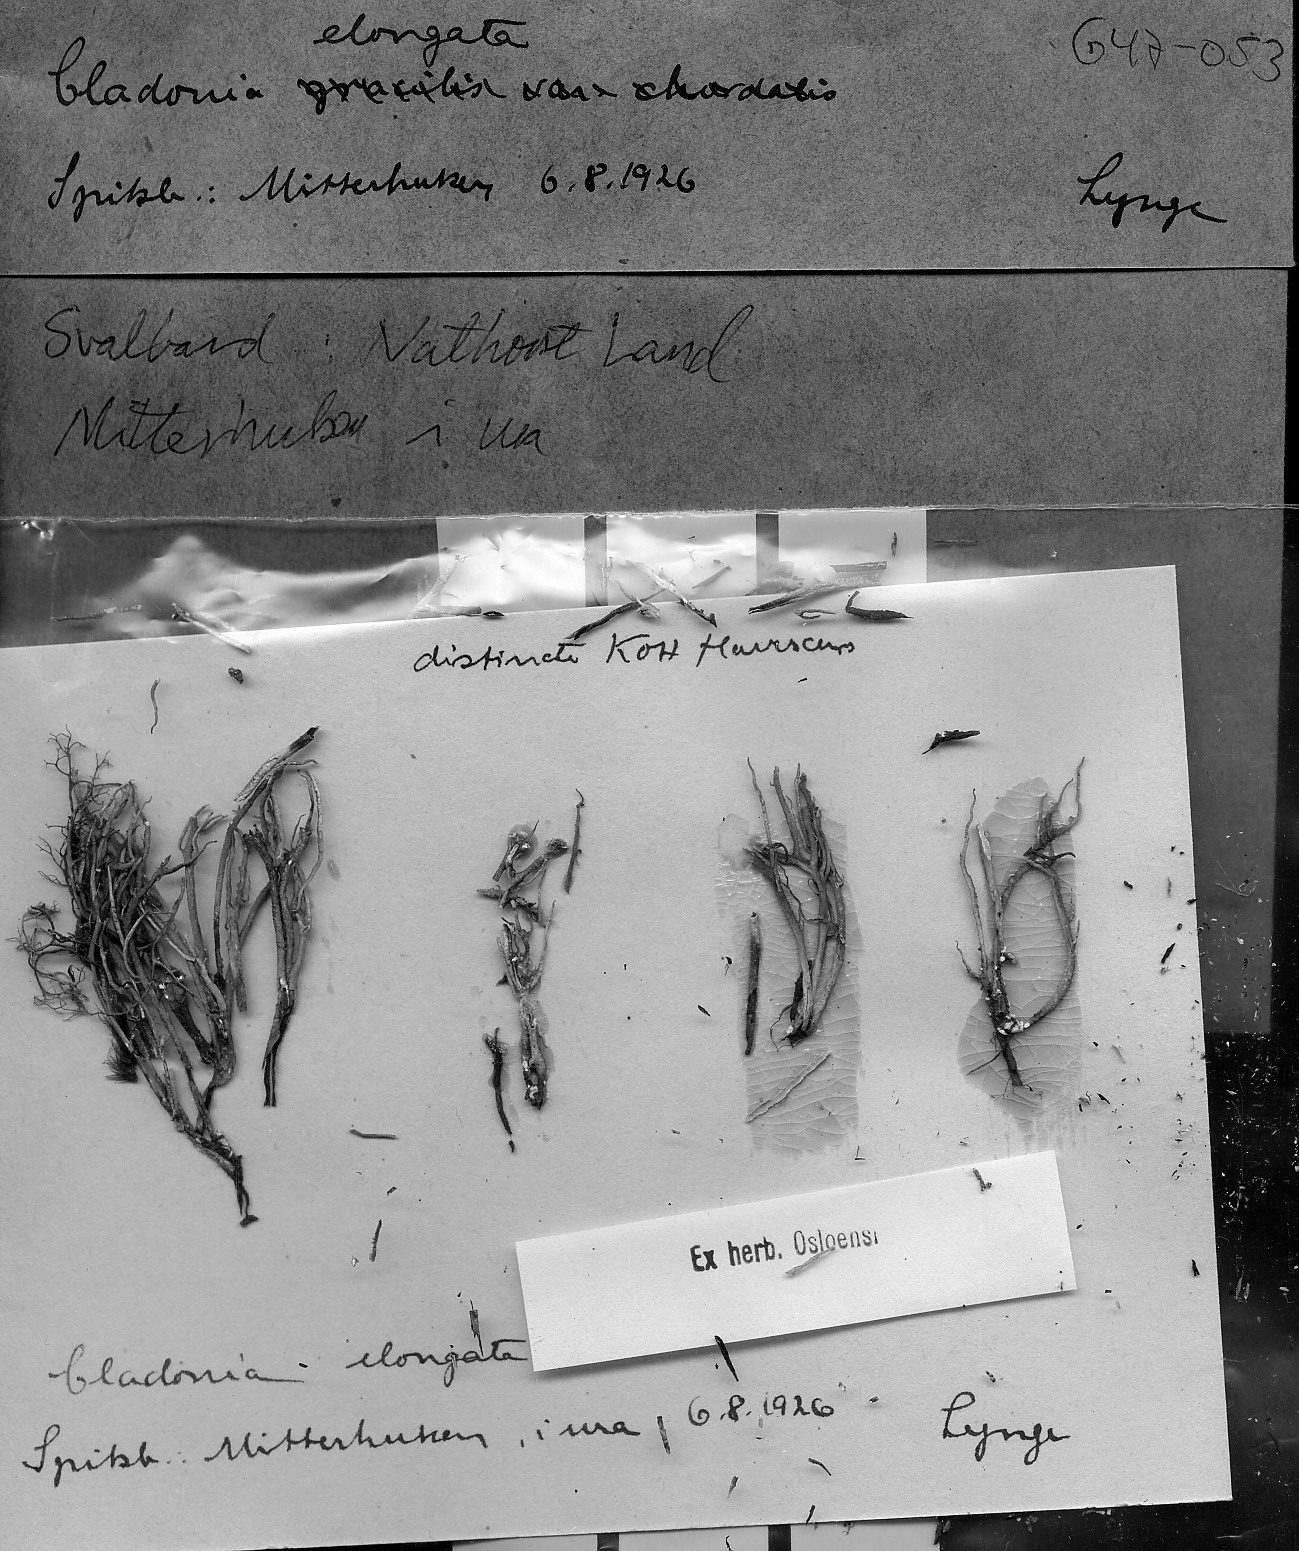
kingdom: Fungi
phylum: Ascomycota
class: Lecanoromycetes
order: Lecanorales
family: Cladoniaceae
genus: Cladonia
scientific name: Cladonia gracilis
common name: Smooth clad lichen
